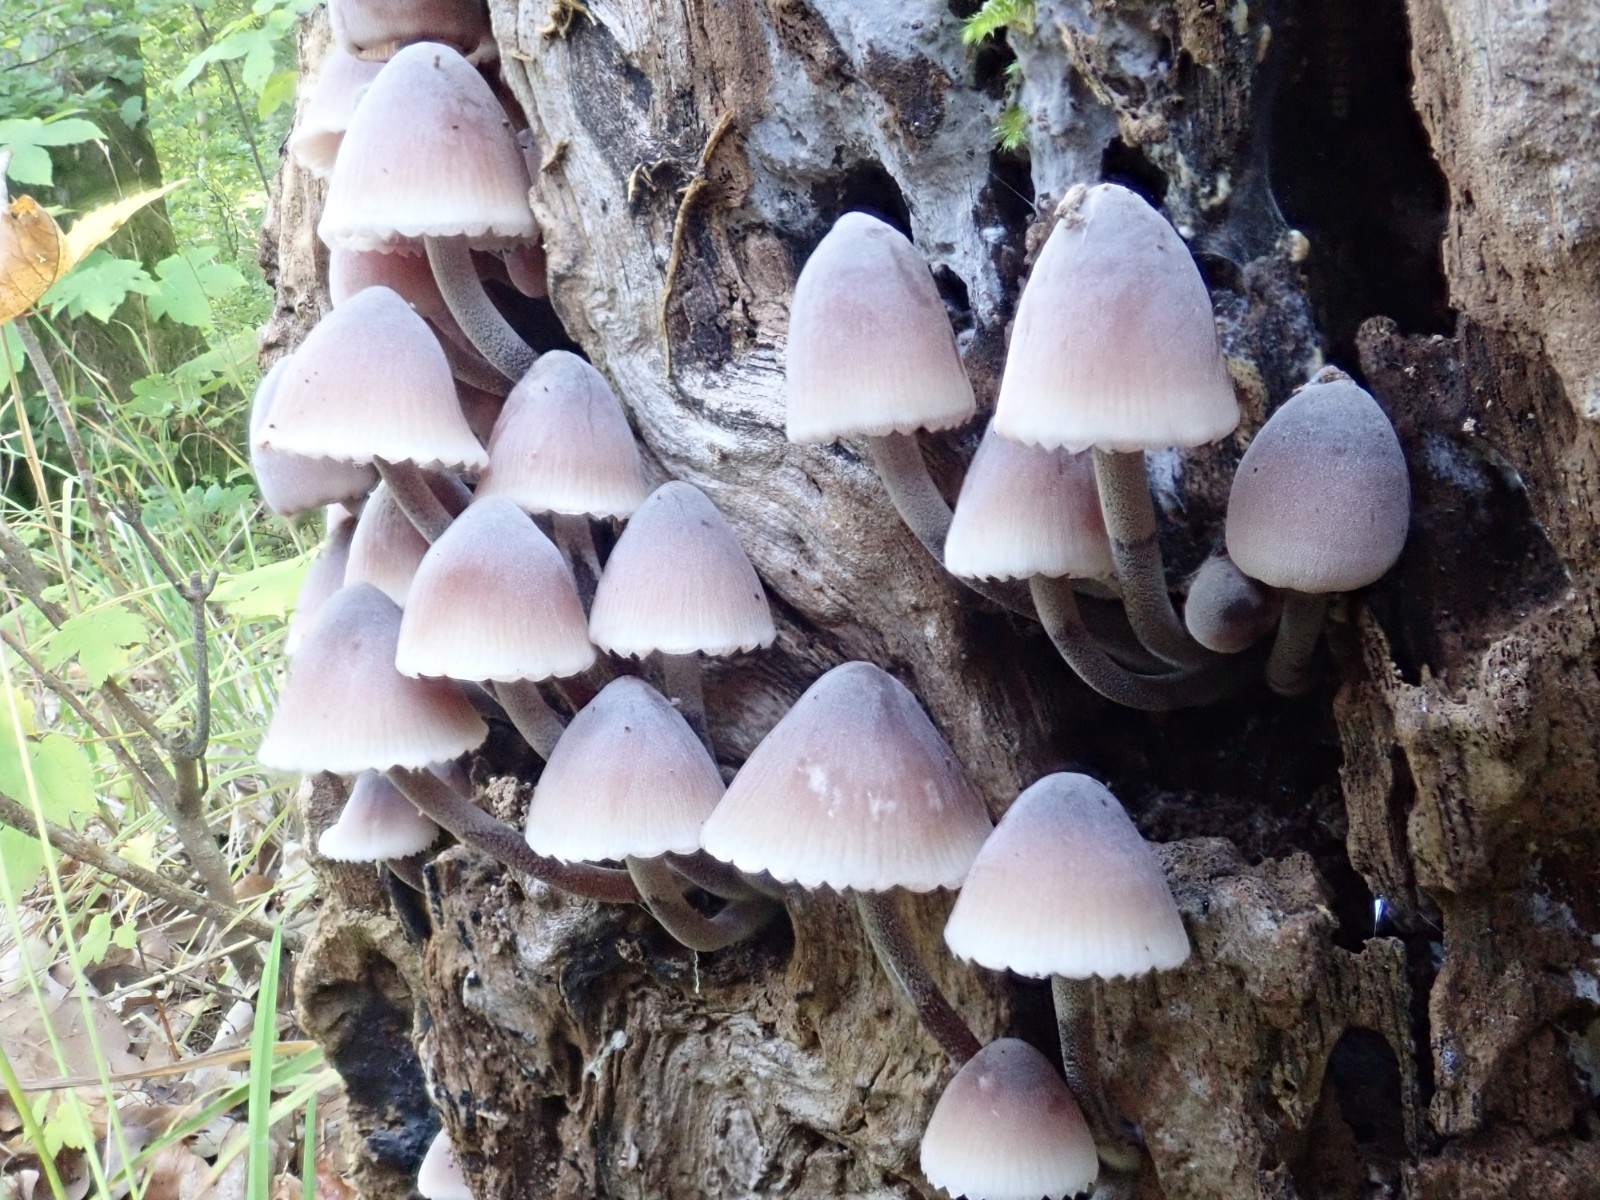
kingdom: Fungi
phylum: Basidiomycota
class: Agaricomycetes
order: Agaricales
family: Mycenaceae
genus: Mycena
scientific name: Mycena haematopus
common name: blødende huesvamp
